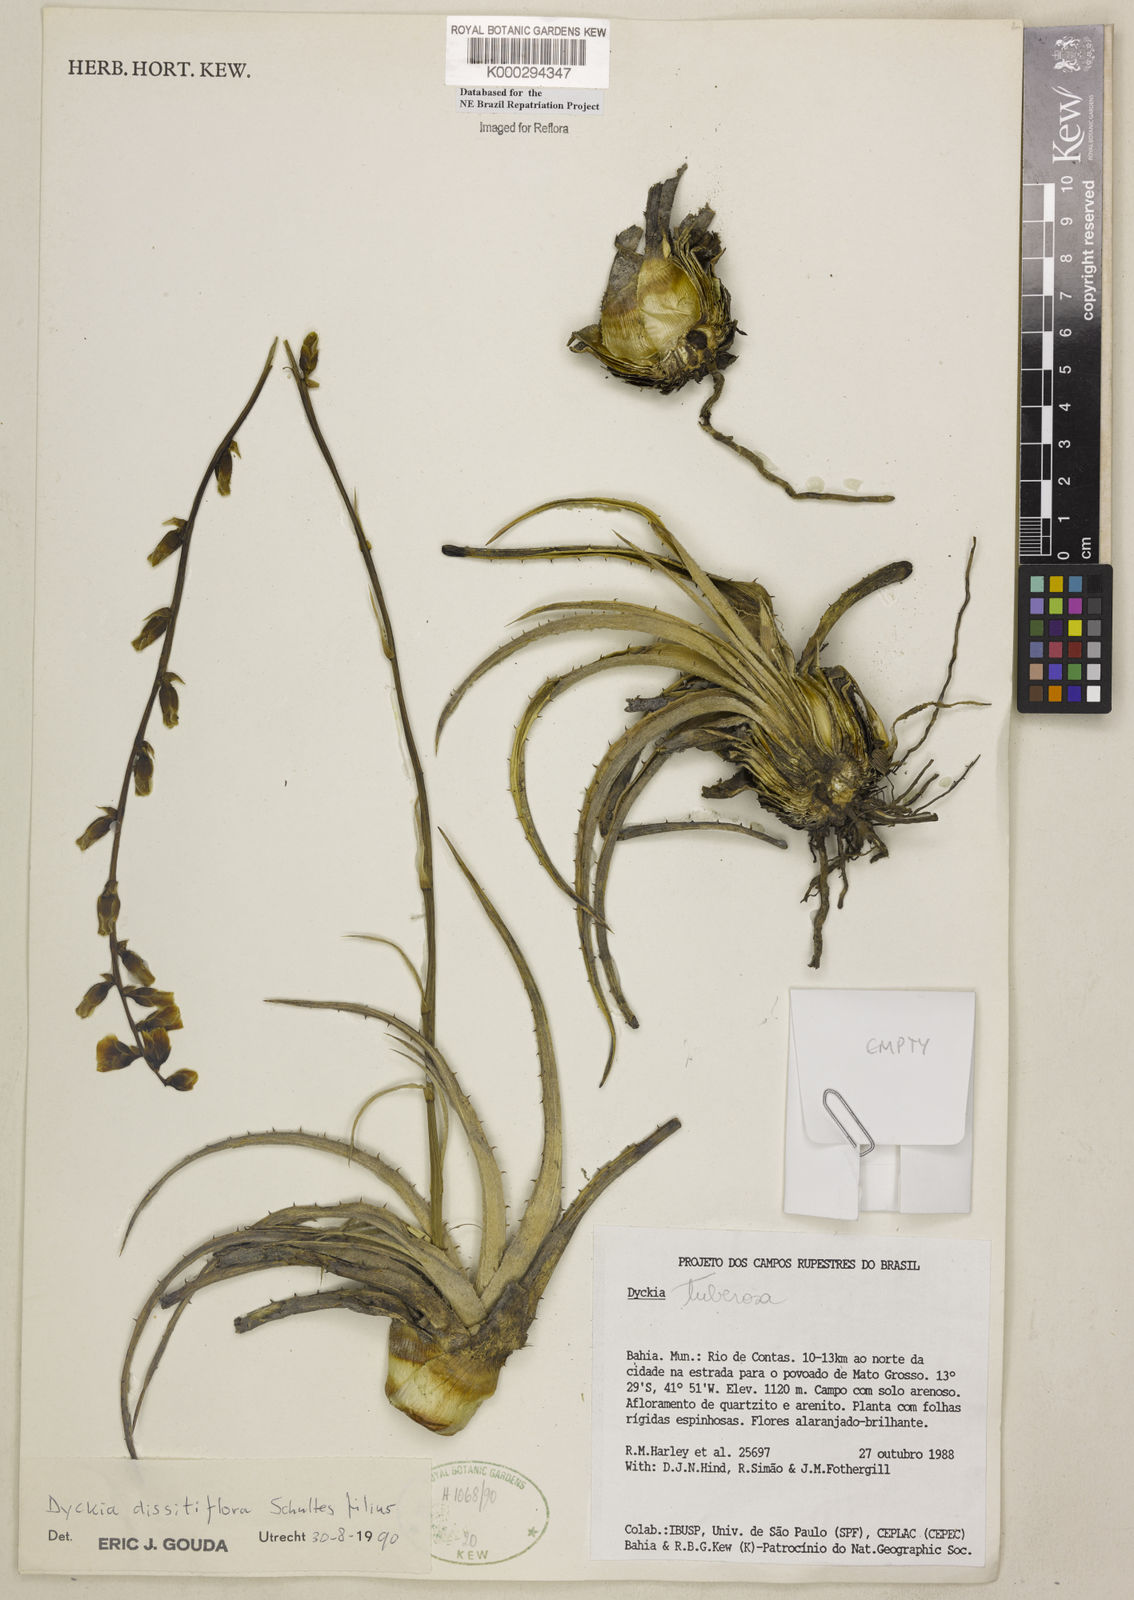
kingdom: Plantae
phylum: Tracheophyta
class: Liliopsida
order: Poales
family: Bromeliaceae
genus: Dyckia
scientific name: Dyckia dissitiflora
